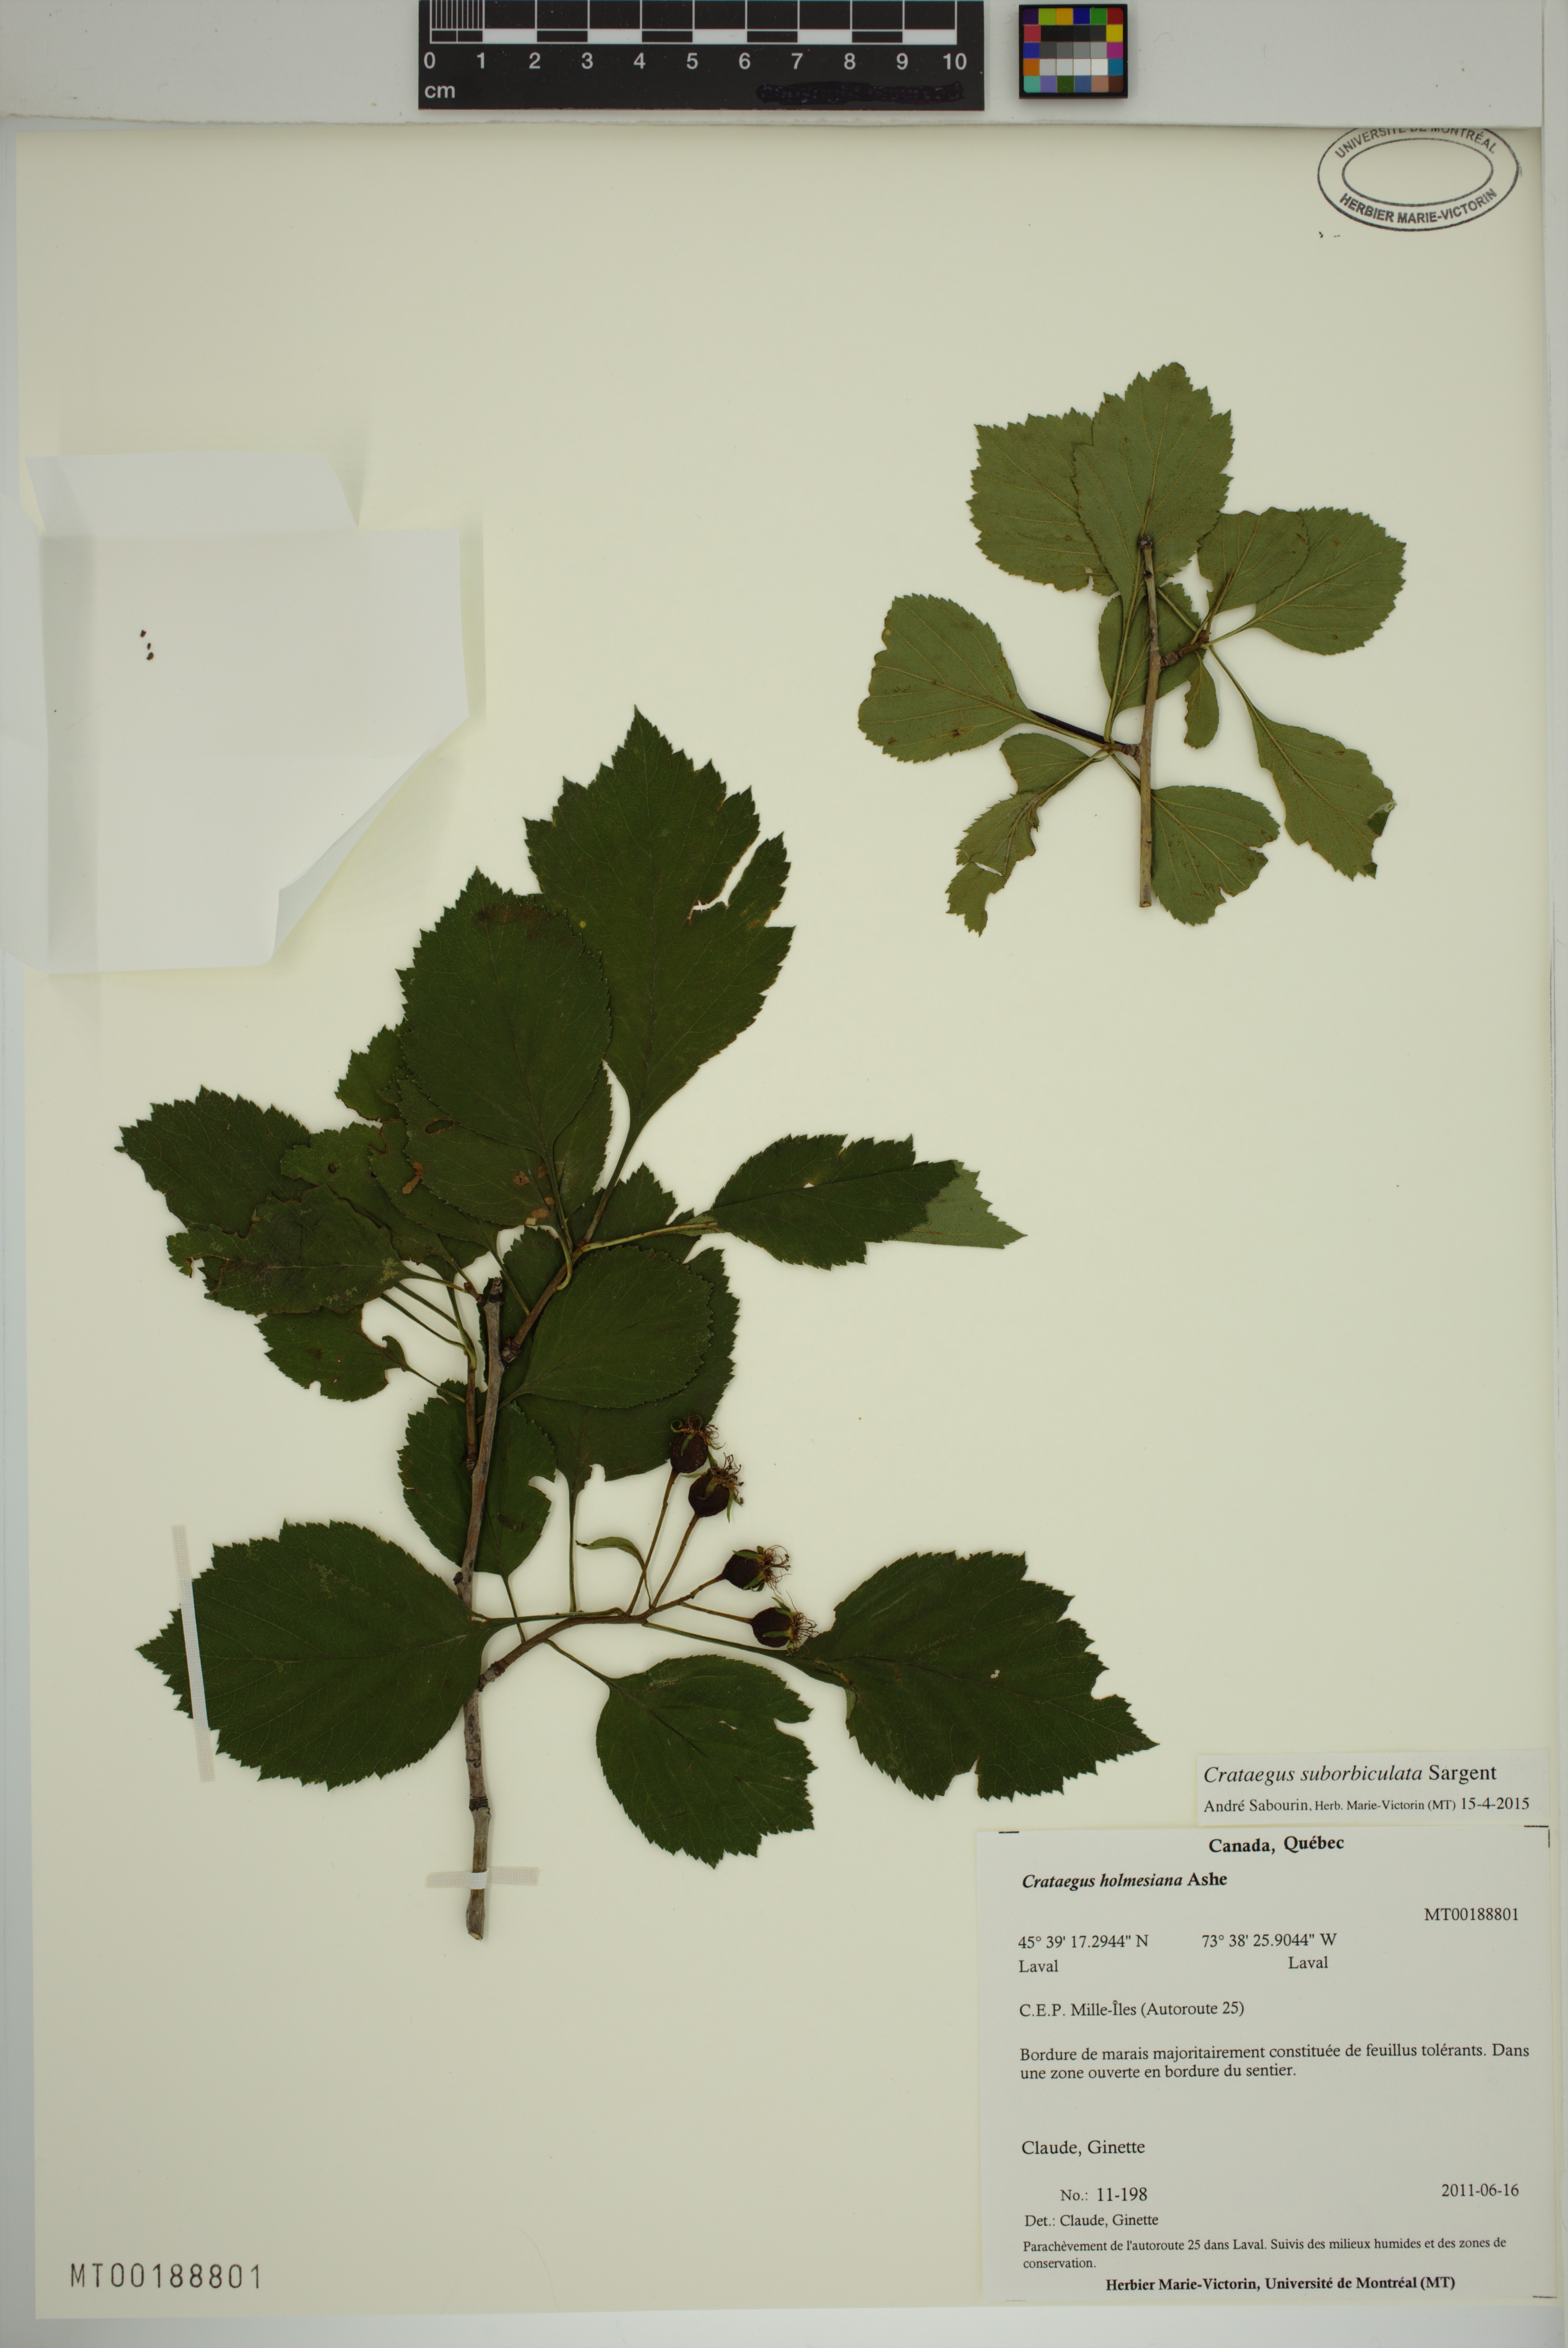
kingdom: Plantae
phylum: Tracheophyta
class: Magnoliopsida
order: Rosales
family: Rosaceae
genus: Crataegus
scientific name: Crataegus suborbiculata
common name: Caughnawaga hawthorn
